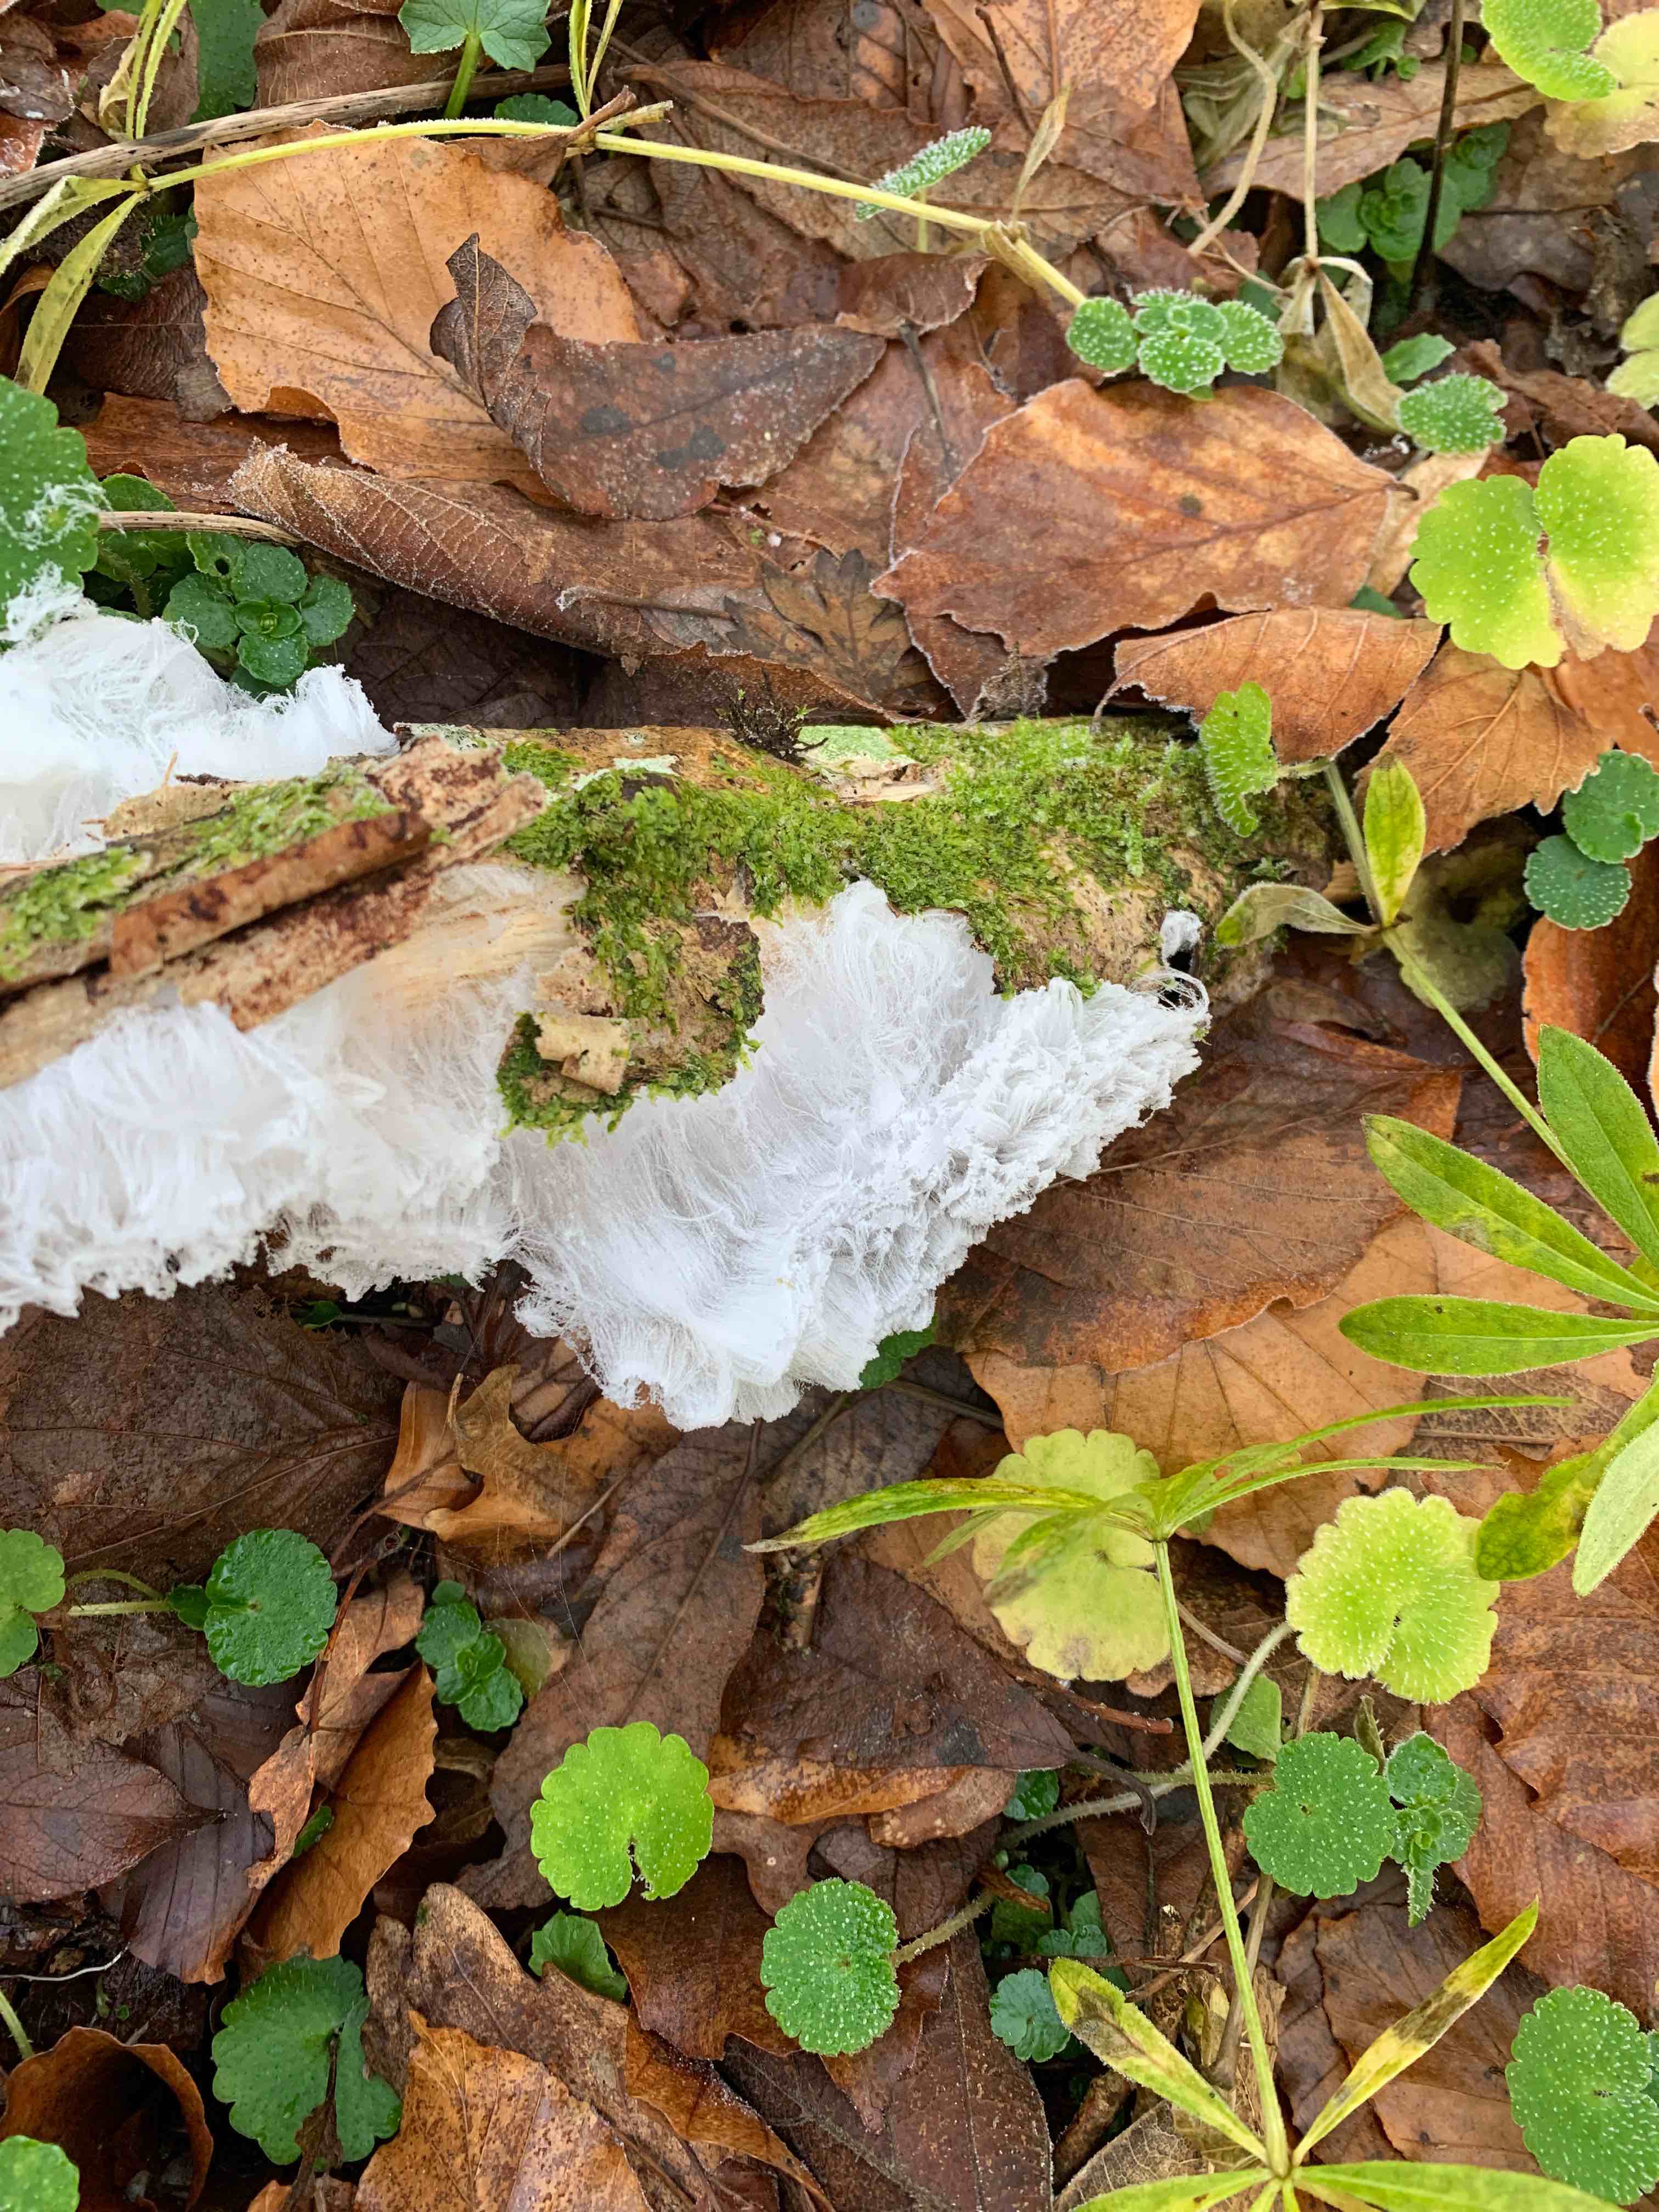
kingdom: Fungi
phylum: Basidiomycota
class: Tremellomycetes
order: Tremellales
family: Exidiaceae
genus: Exidiopsis
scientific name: Exidiopsis effusa
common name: smuk bævrehinde
